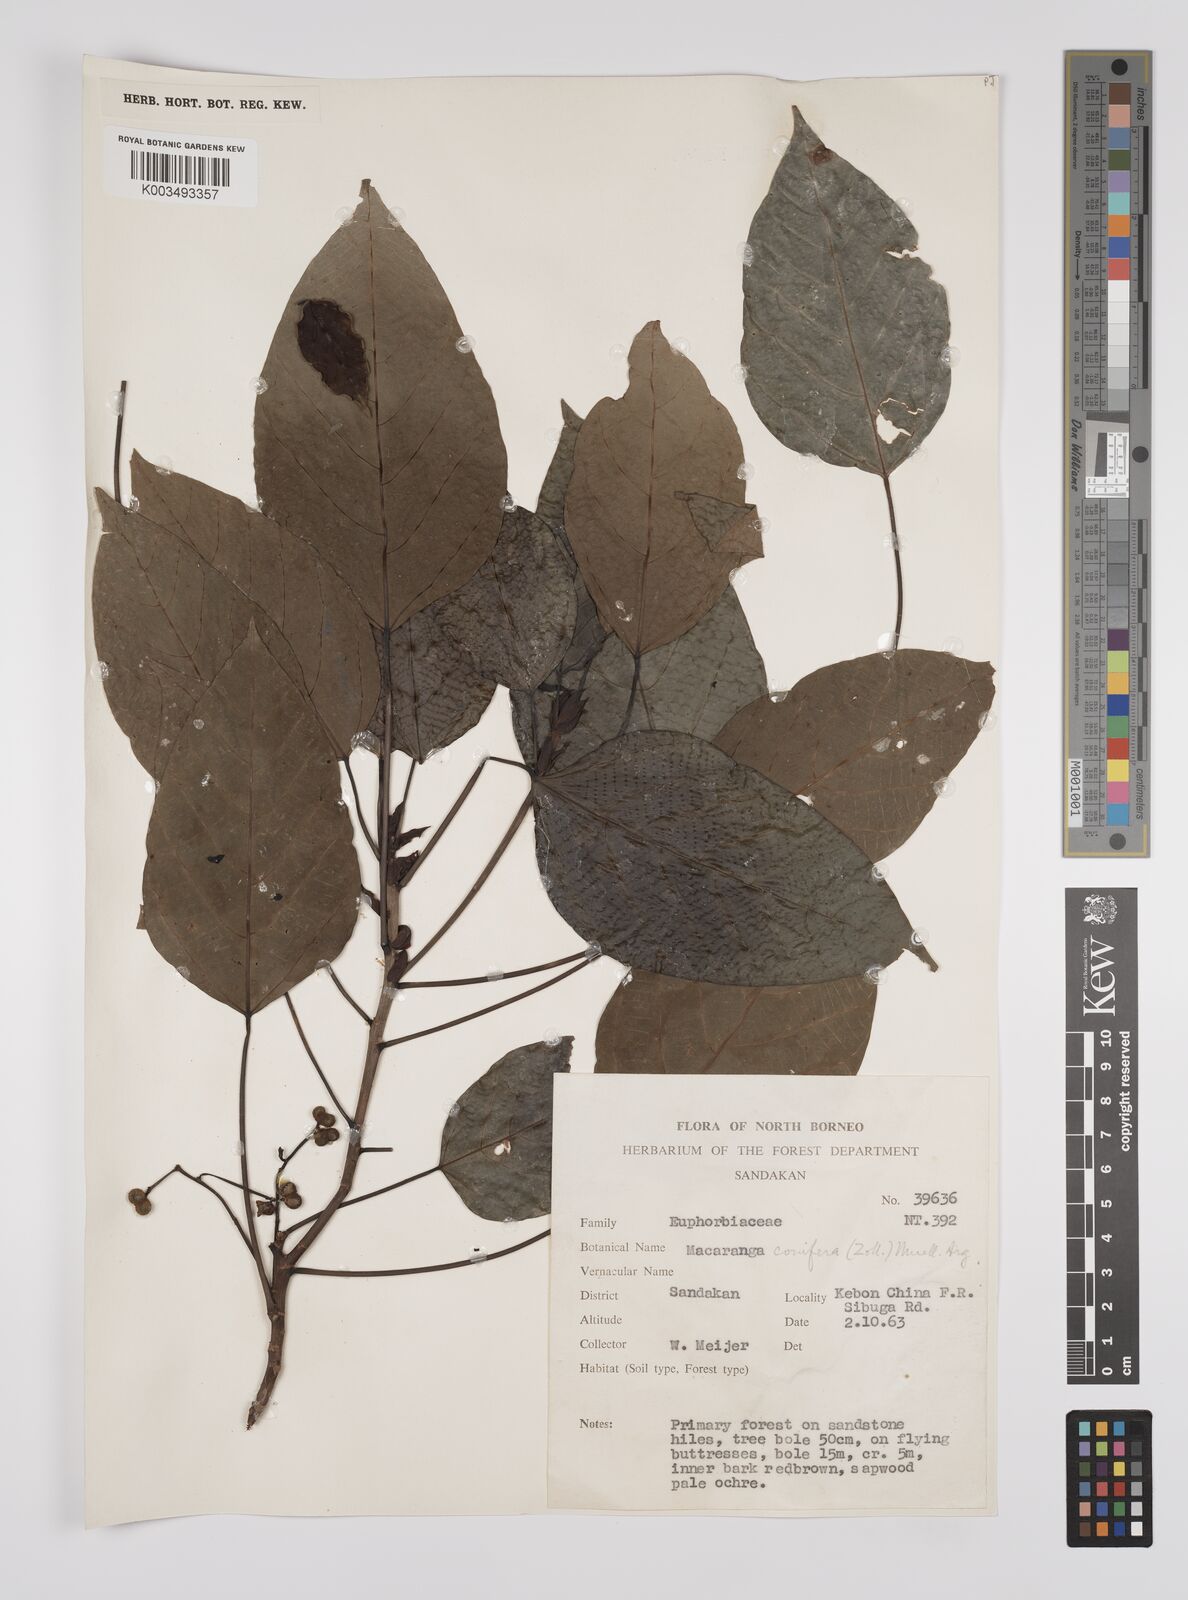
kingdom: Plantae
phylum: Tracheophyta
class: Magnoliopsida
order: Malpighiales
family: Euphorbiaceae
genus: Macaranga
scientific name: Macaranga conifera
